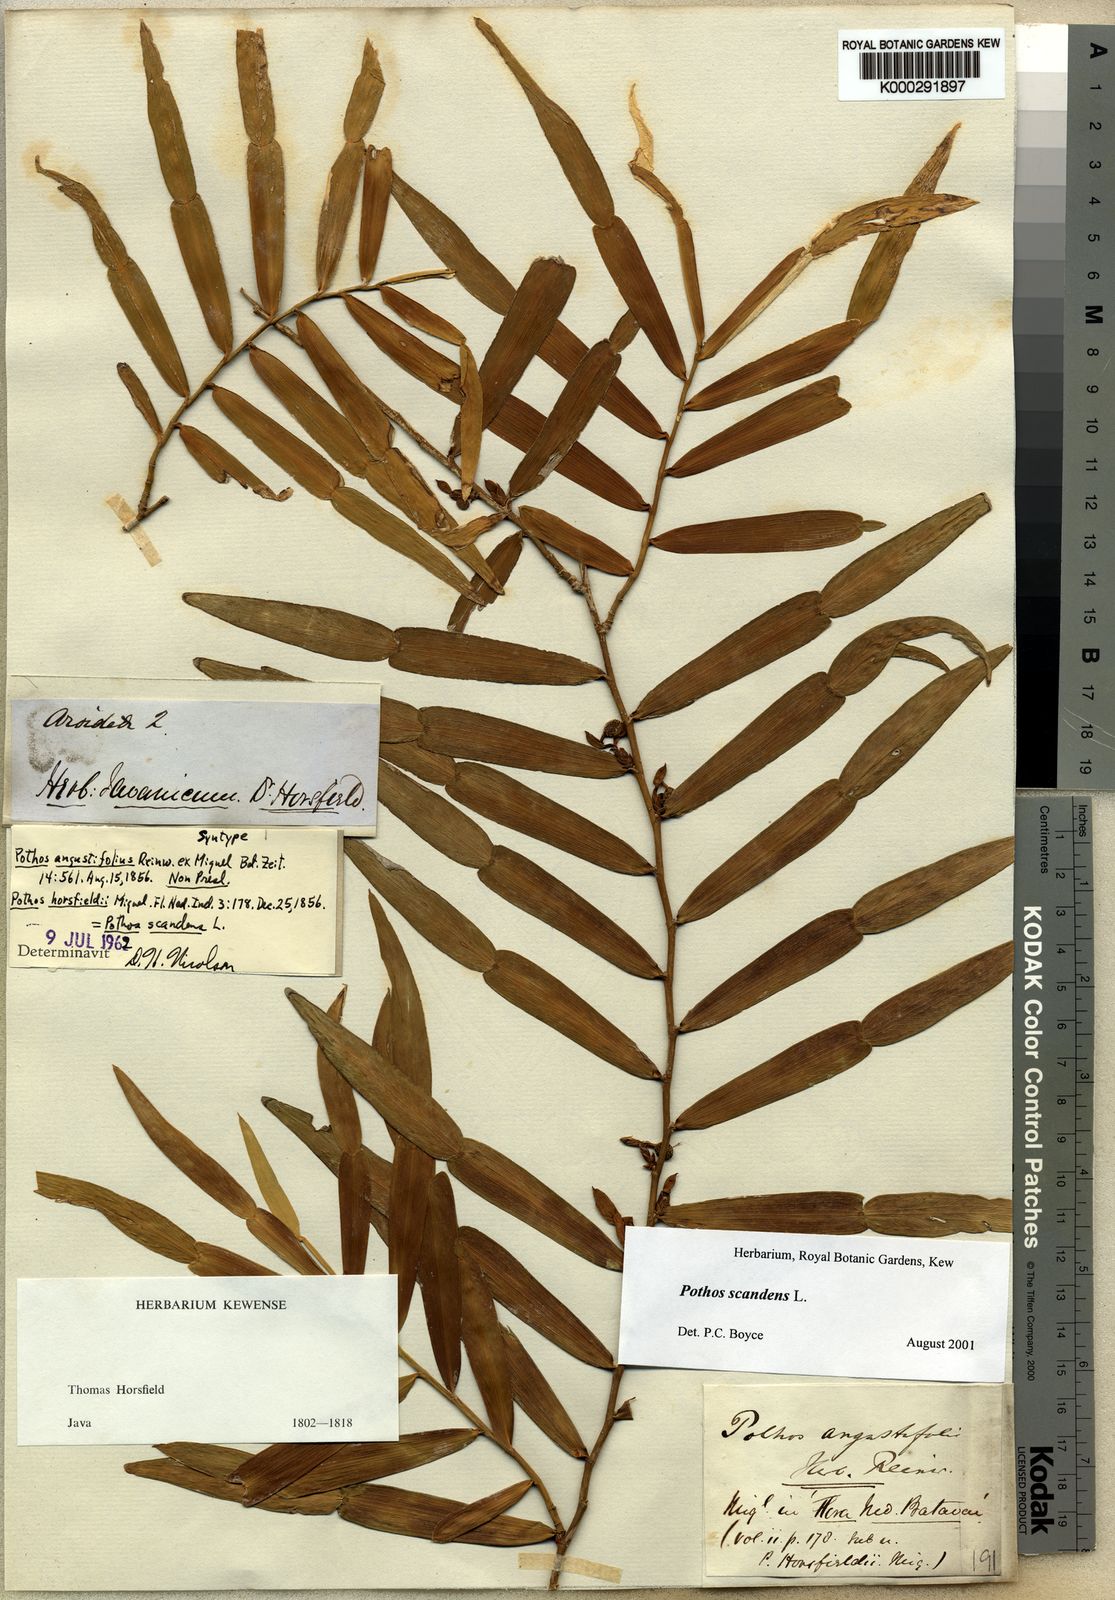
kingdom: Plantae
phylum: Tracheophyta
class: Liliopsida
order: Alismatales
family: Araceae
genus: Pothos
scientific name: Pothos scandens
